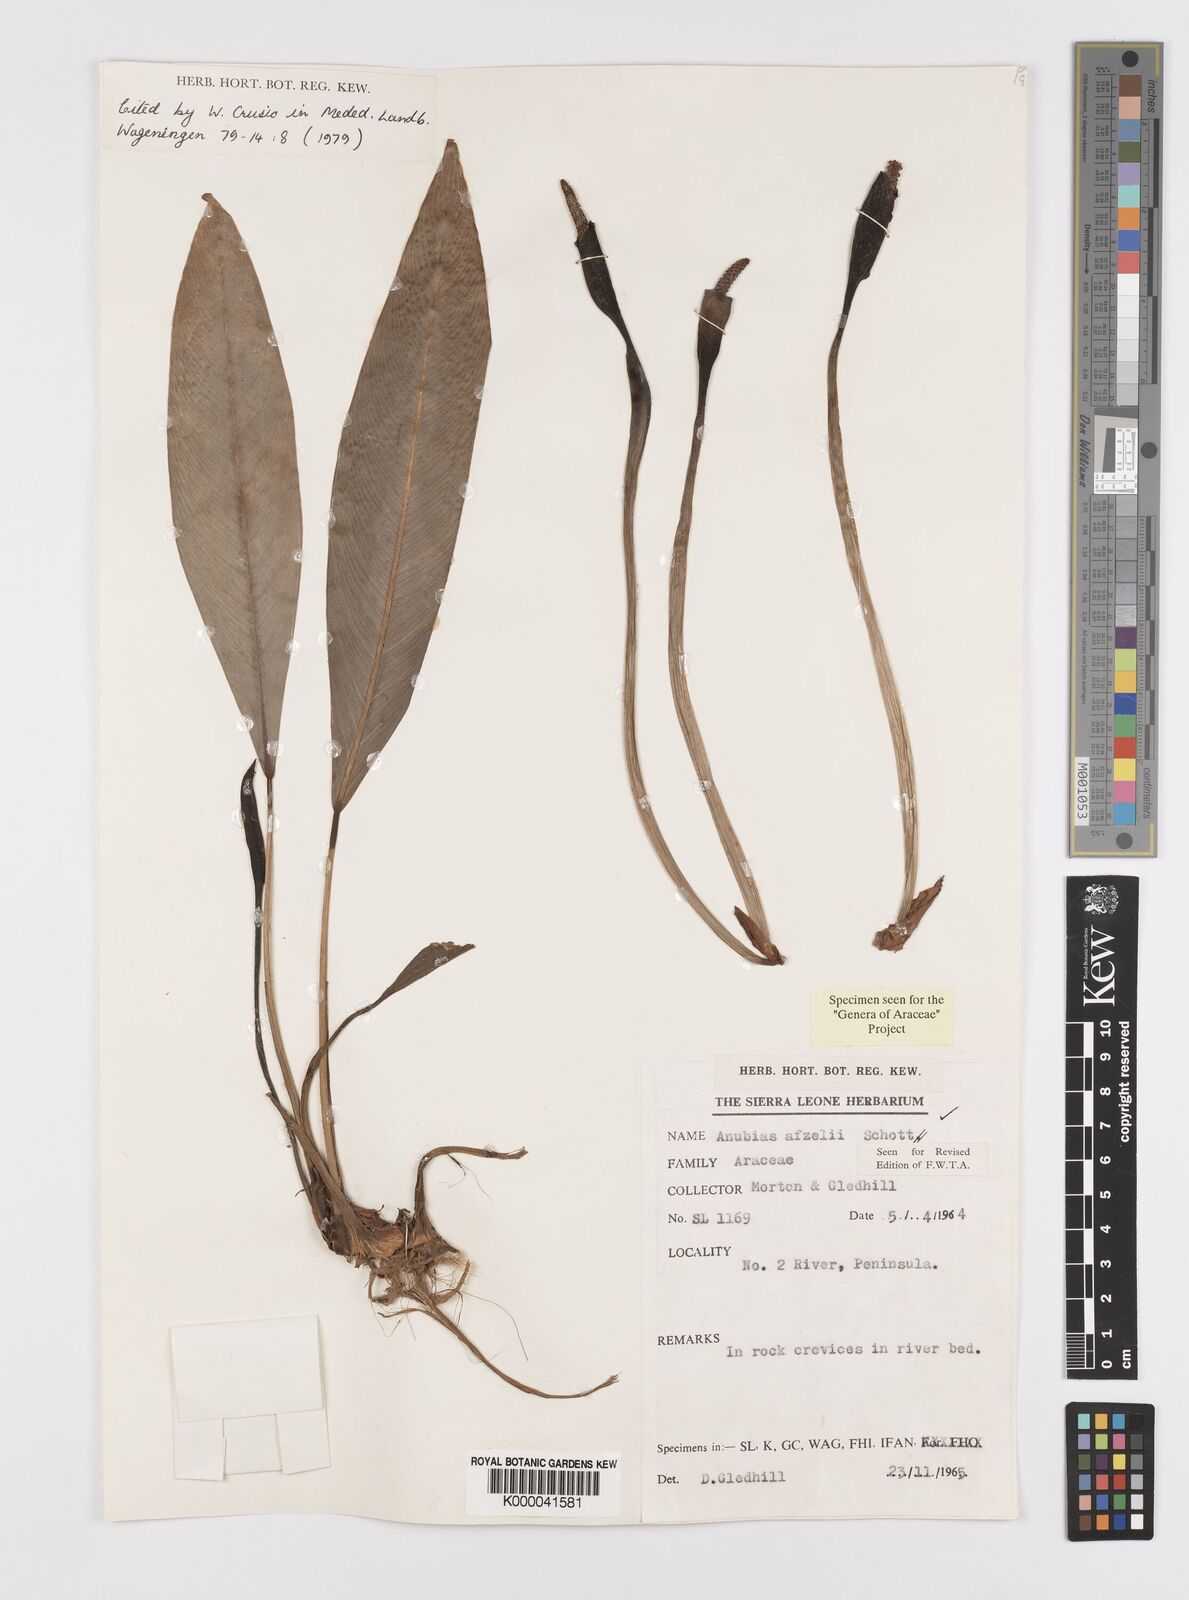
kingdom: Plantae
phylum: Tracheophyta
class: Liliopsida
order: Alismatales
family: Araceae
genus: Anubias
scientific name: Anubias afzelii
